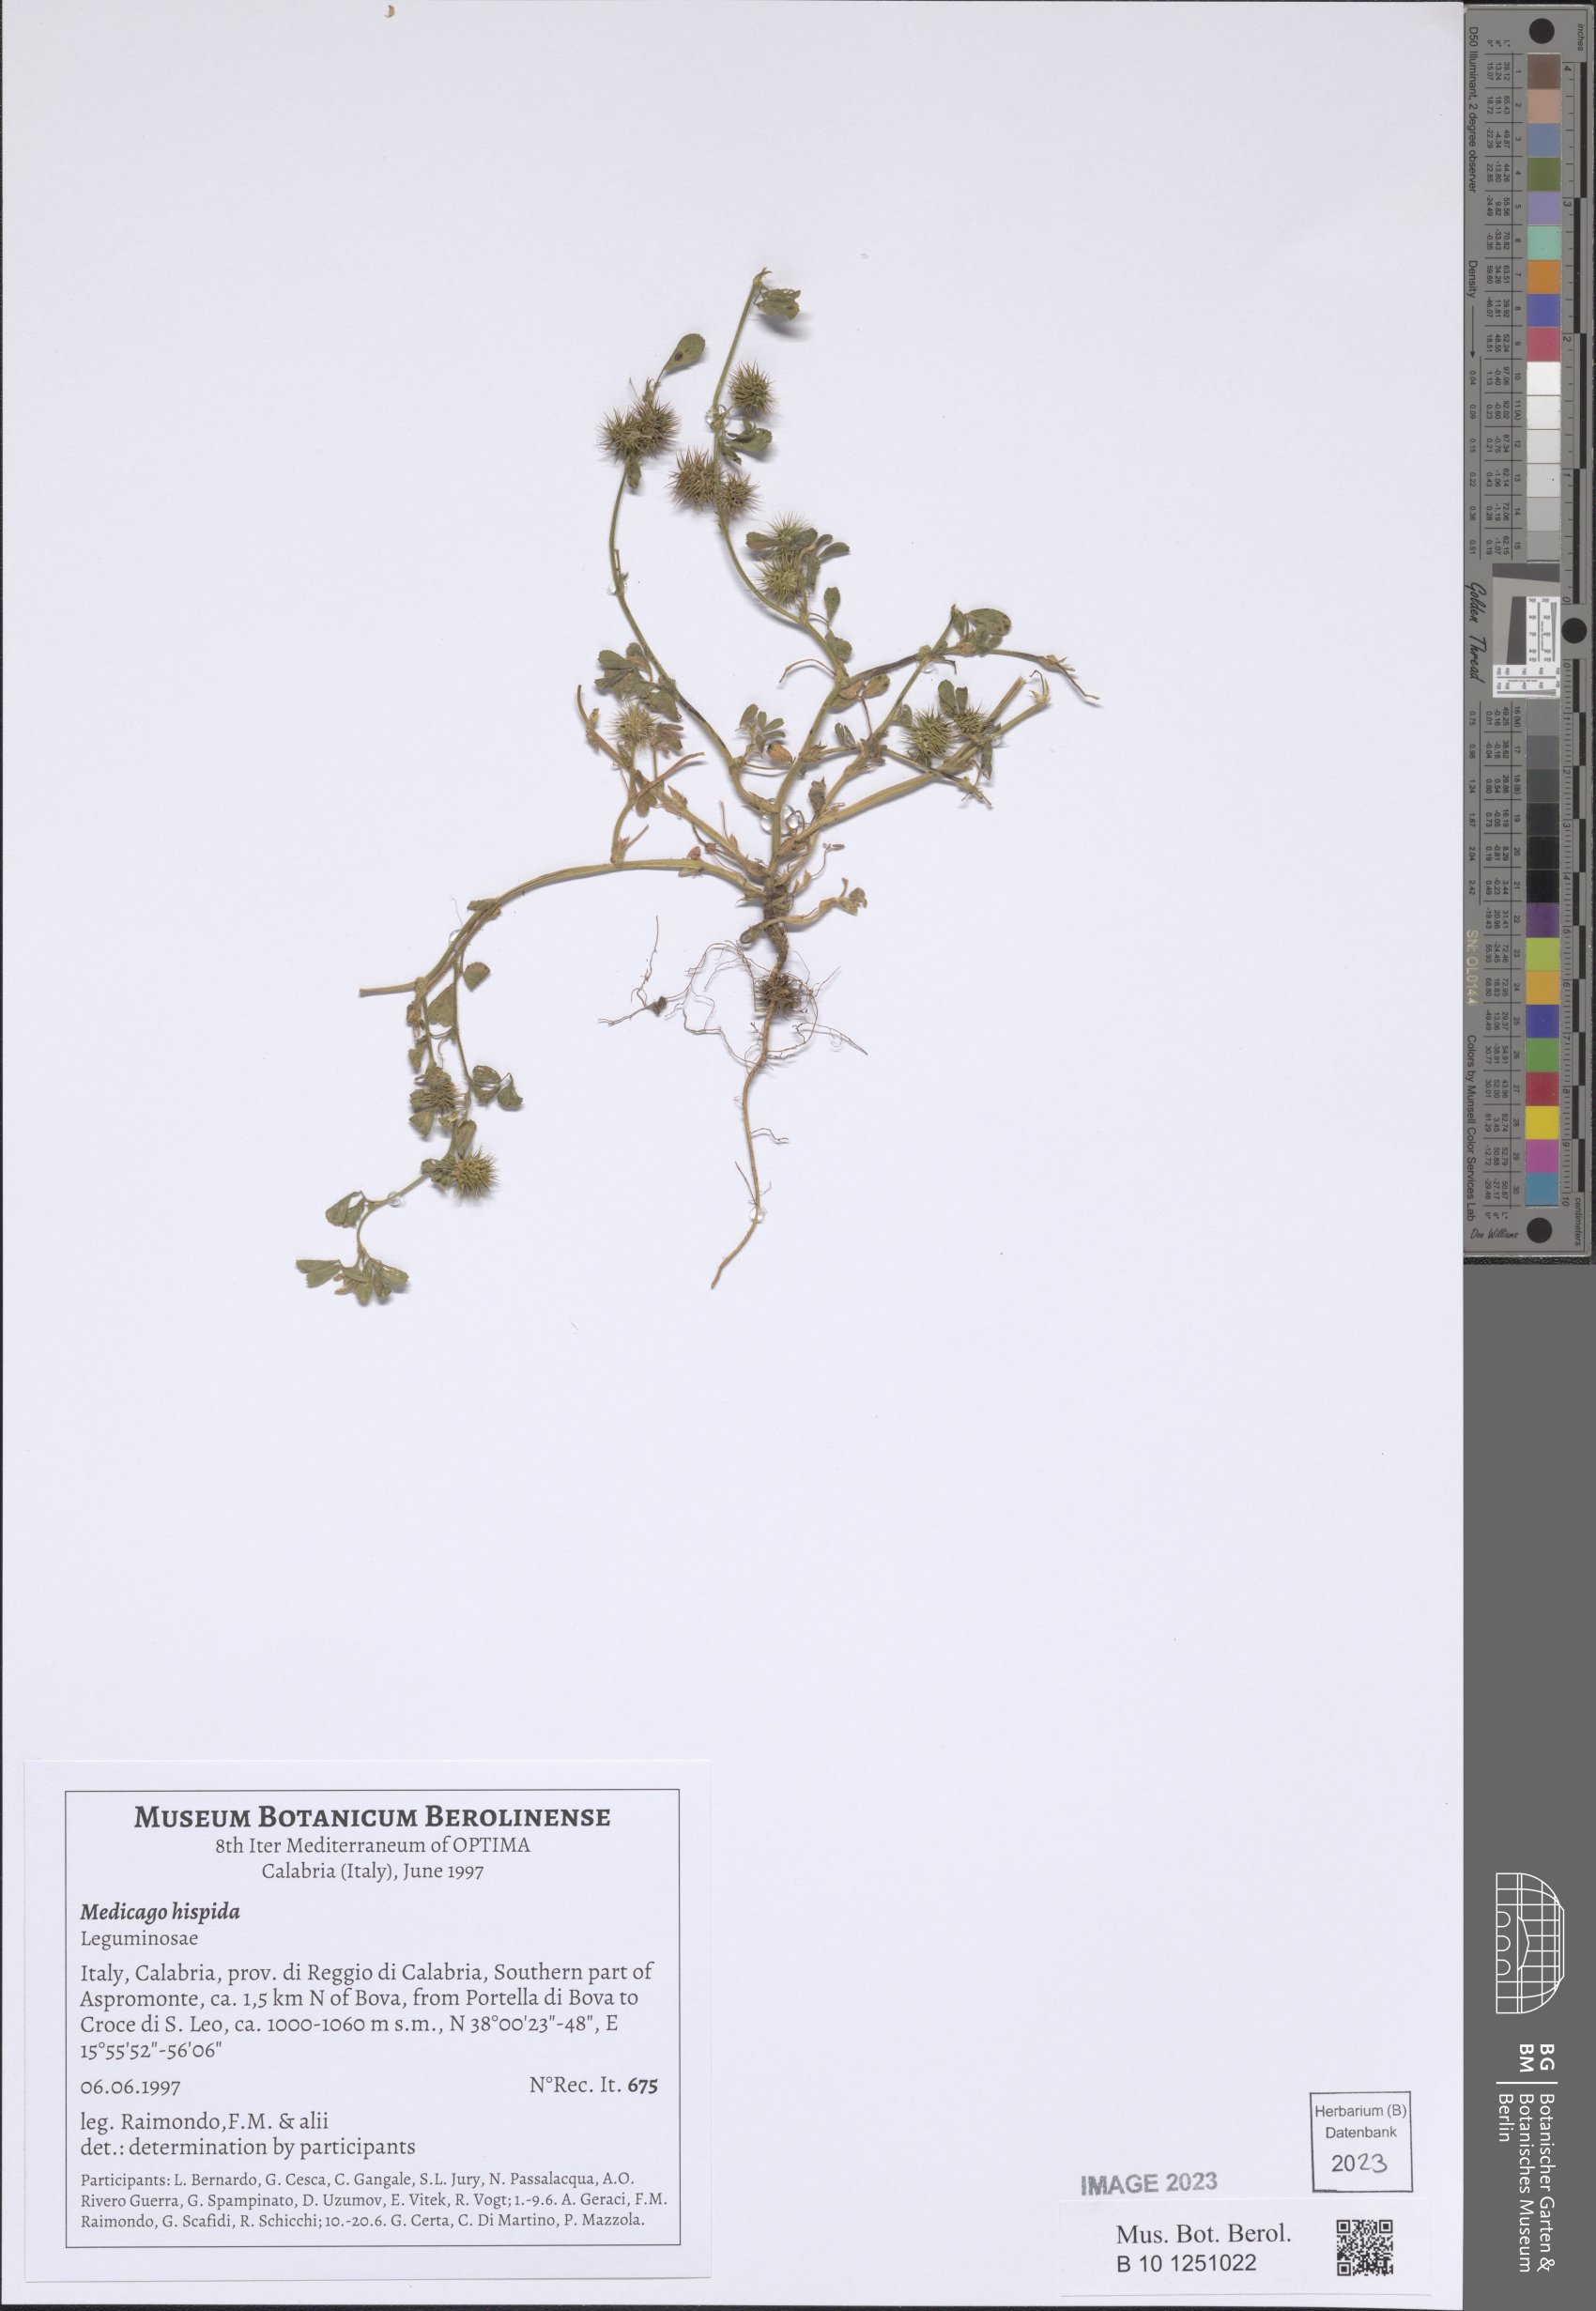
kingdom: Plantae
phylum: Tracheophyta
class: Magnoliopsida
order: Fabales
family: Fabaceae
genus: Medicago
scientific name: Medicago polymorpha
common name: Burclover
